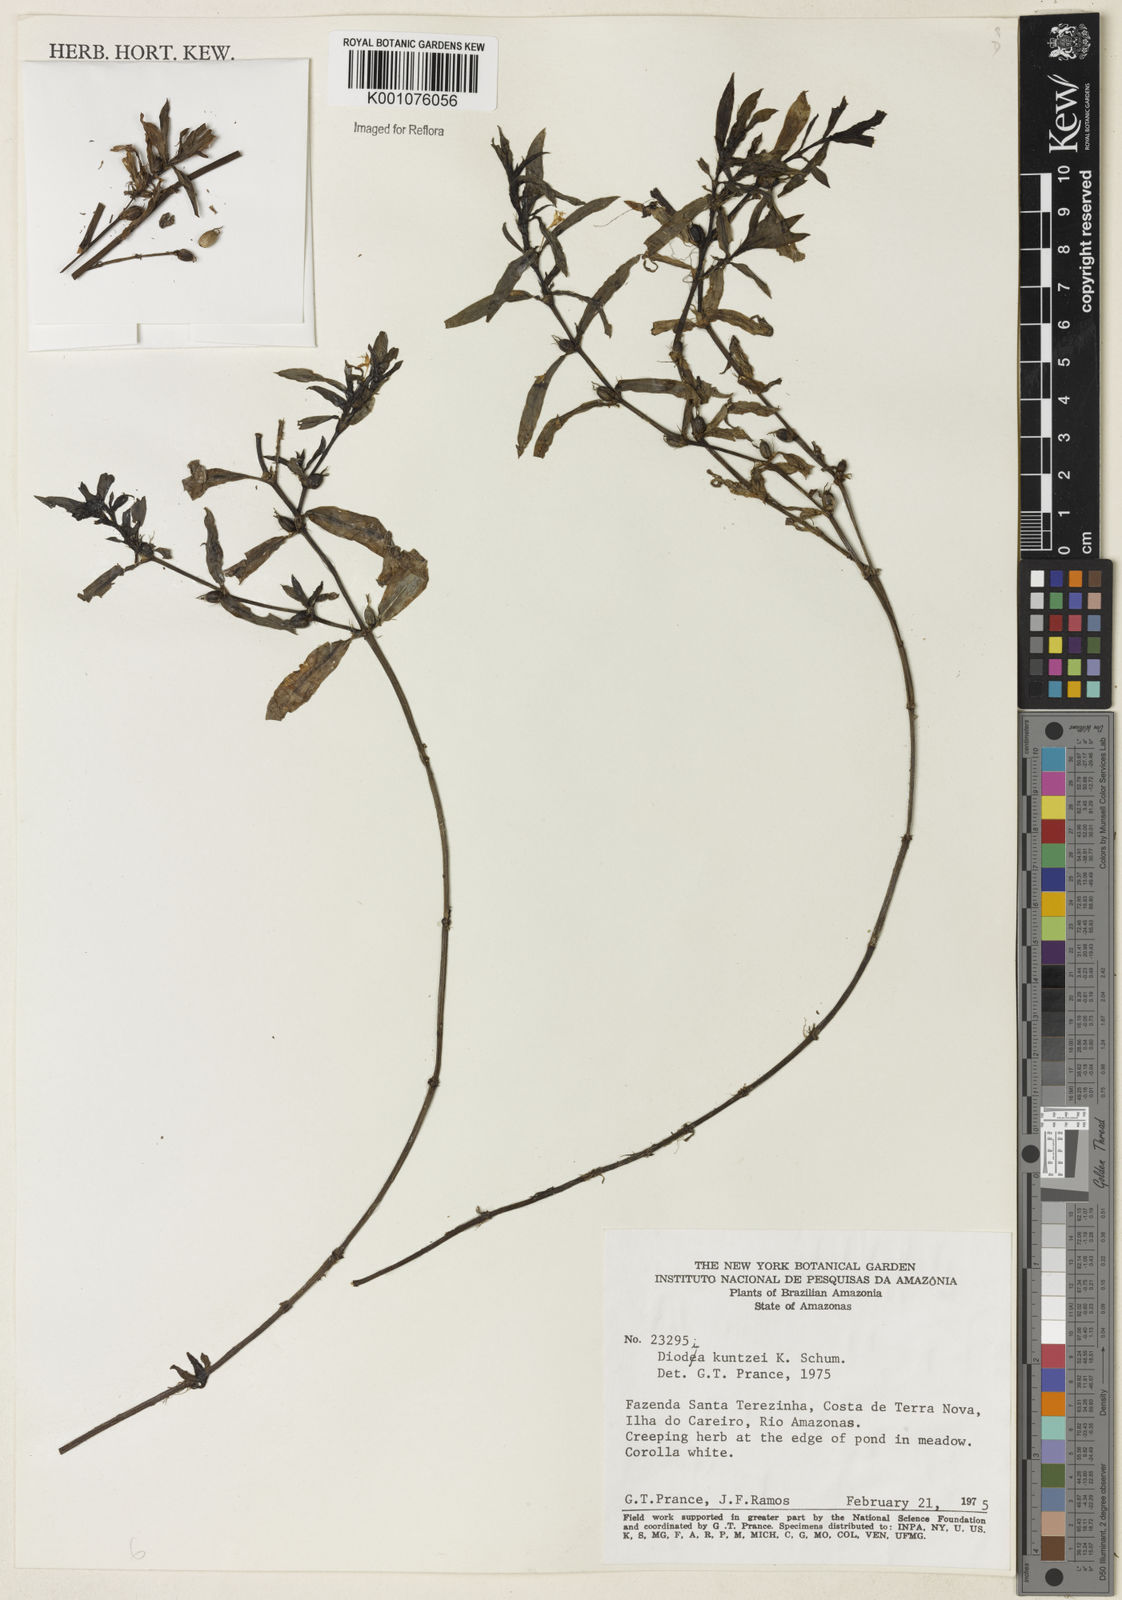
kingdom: Plantae
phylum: Tracheophyta
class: Magnoliopsida
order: Gentianales
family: Rubiaceae
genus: Diodia
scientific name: Diodia kuntzei
